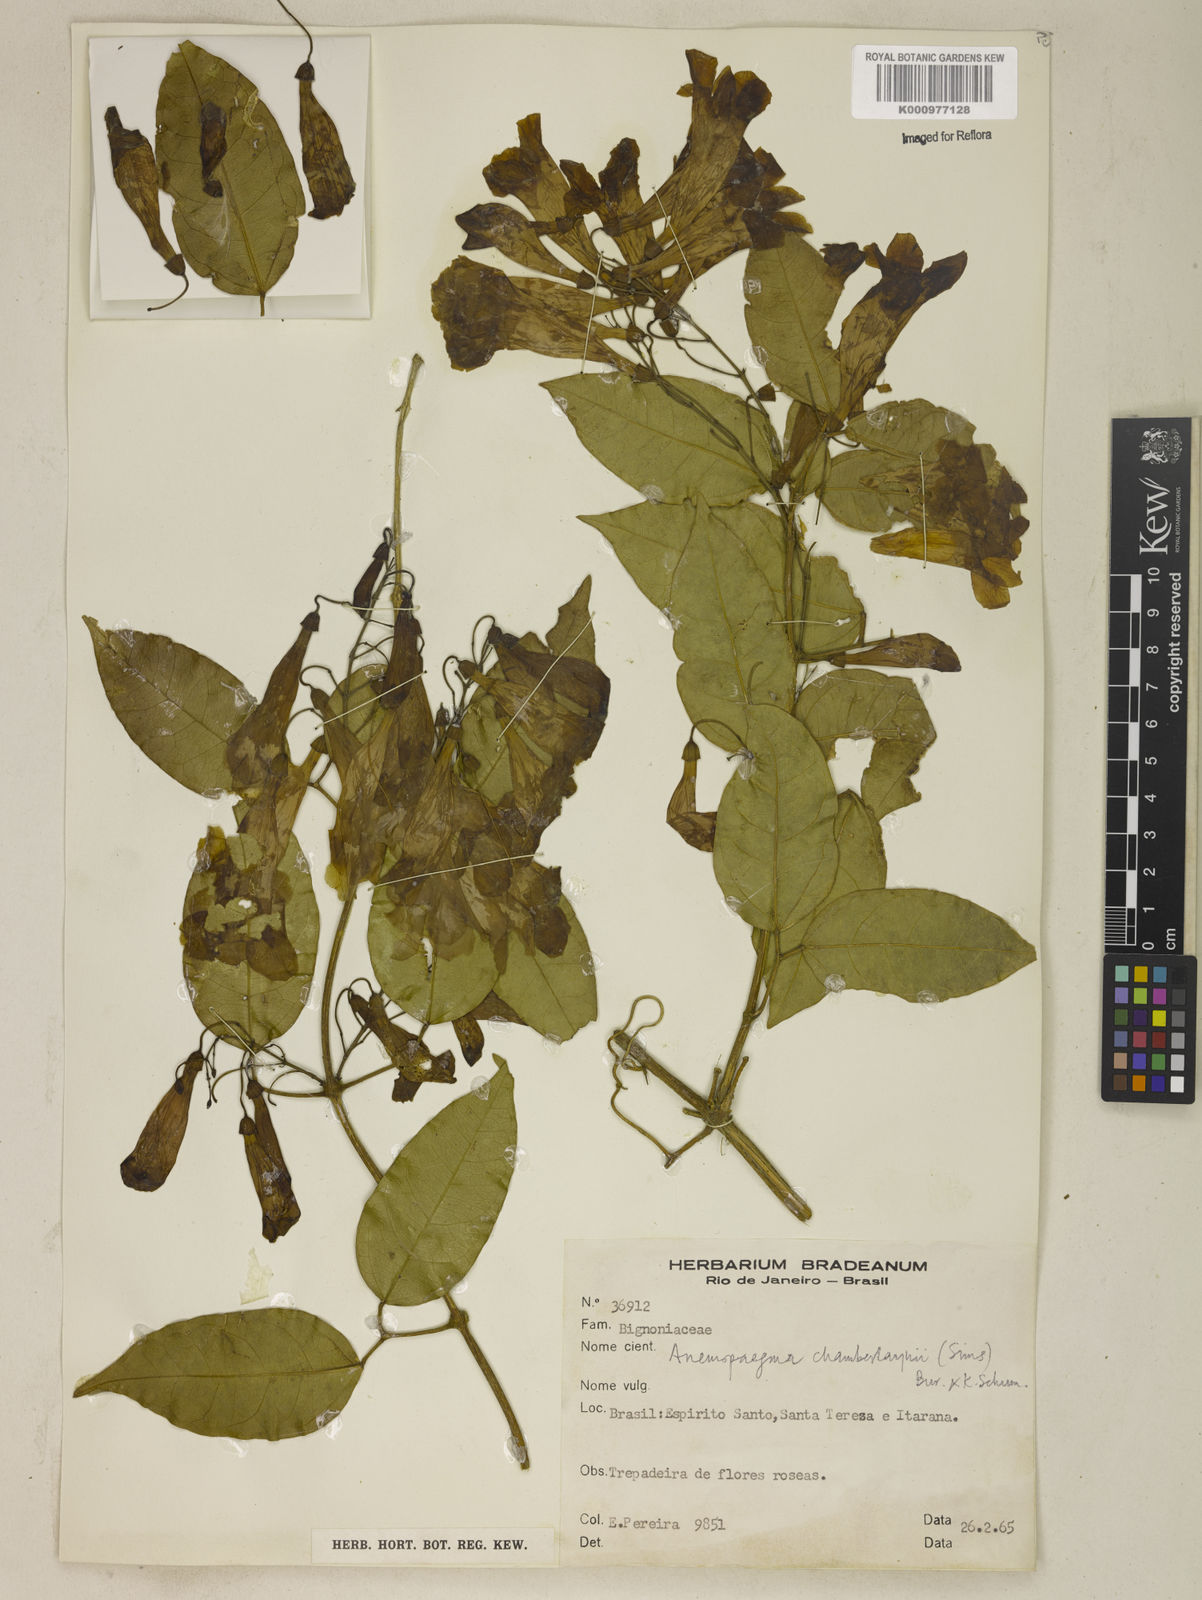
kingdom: Plantae
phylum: Tracheophyta
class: Magnoliopsida
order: Lamiales
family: Bignoniaceae
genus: Anemopaegma
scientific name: Anemopaegma chamberlaynii
